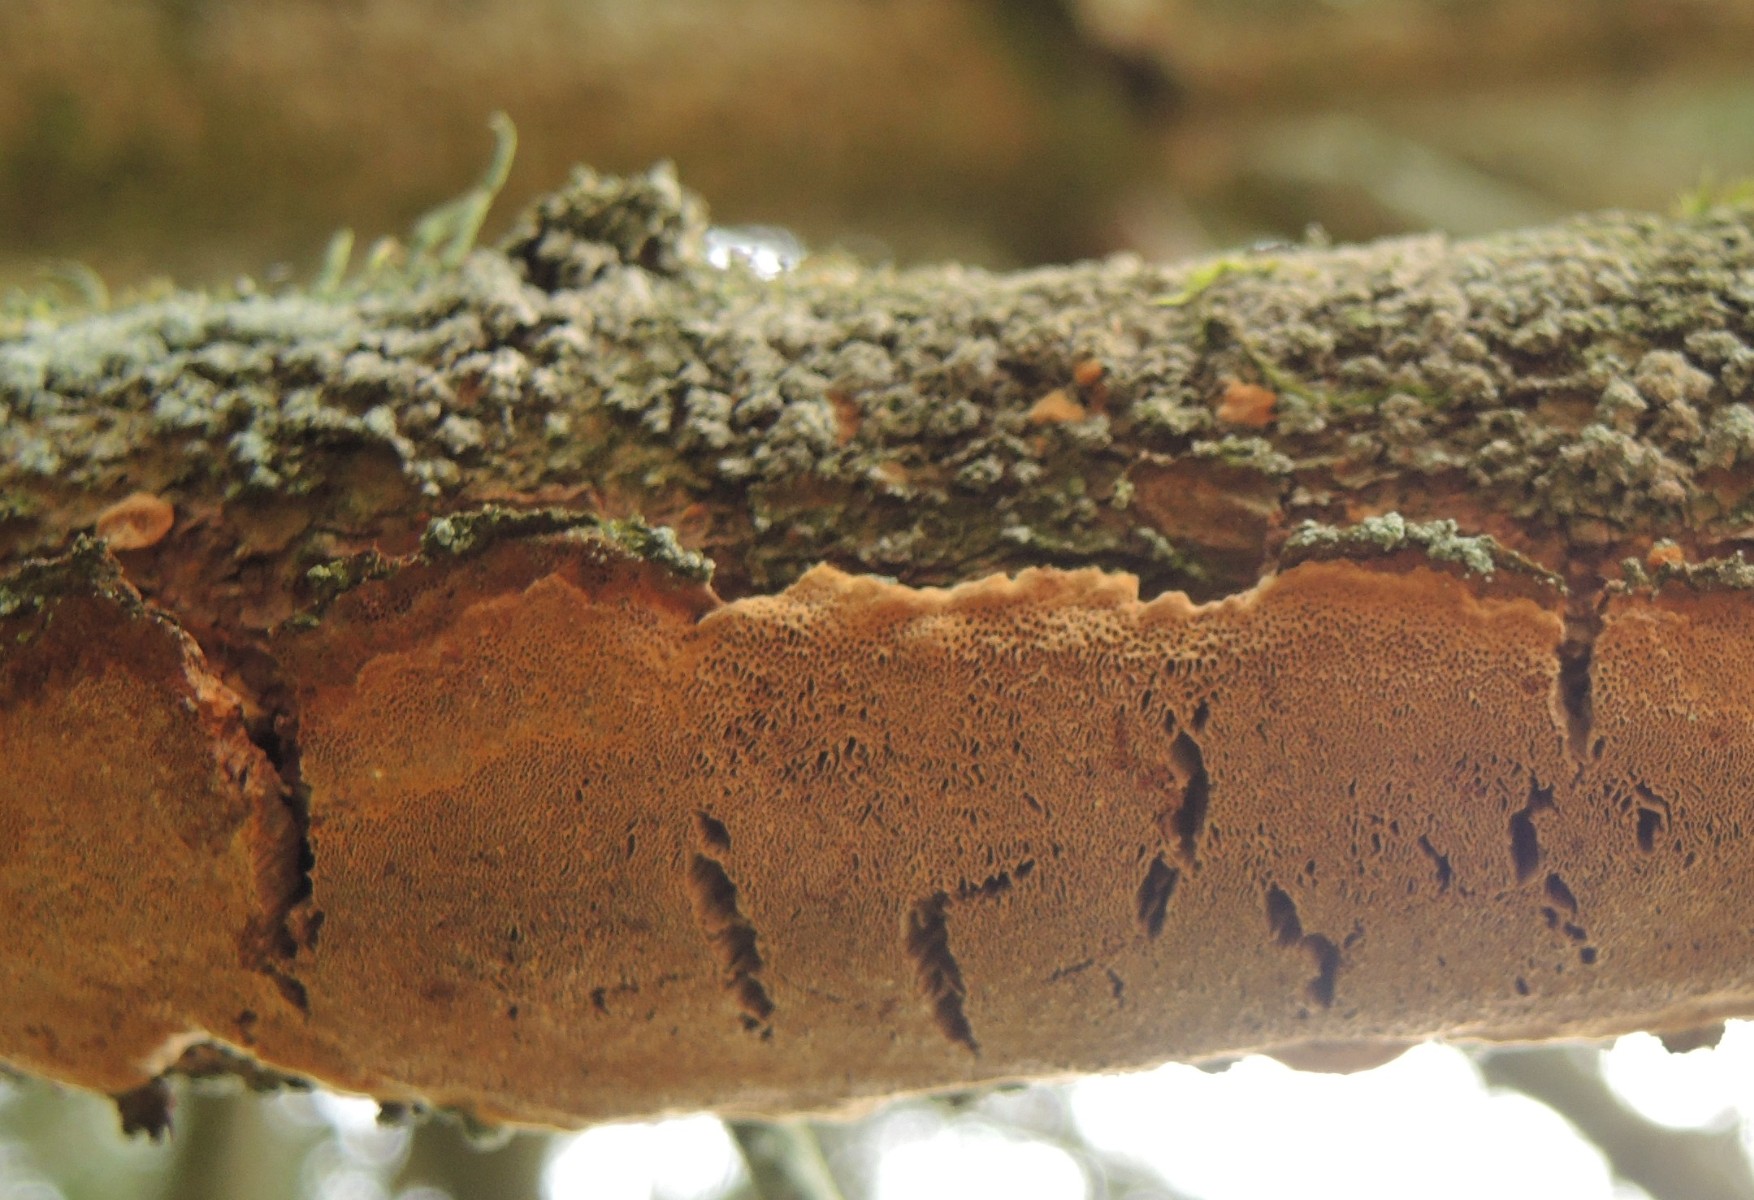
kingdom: Fungi
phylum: Basidiomycota
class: Agaricomycetes
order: Hymenochaetales
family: Hymenochaetaceae
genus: Fuscoporia
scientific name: Fuscoporia ferrea
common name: skorpe-ildporesvamp
